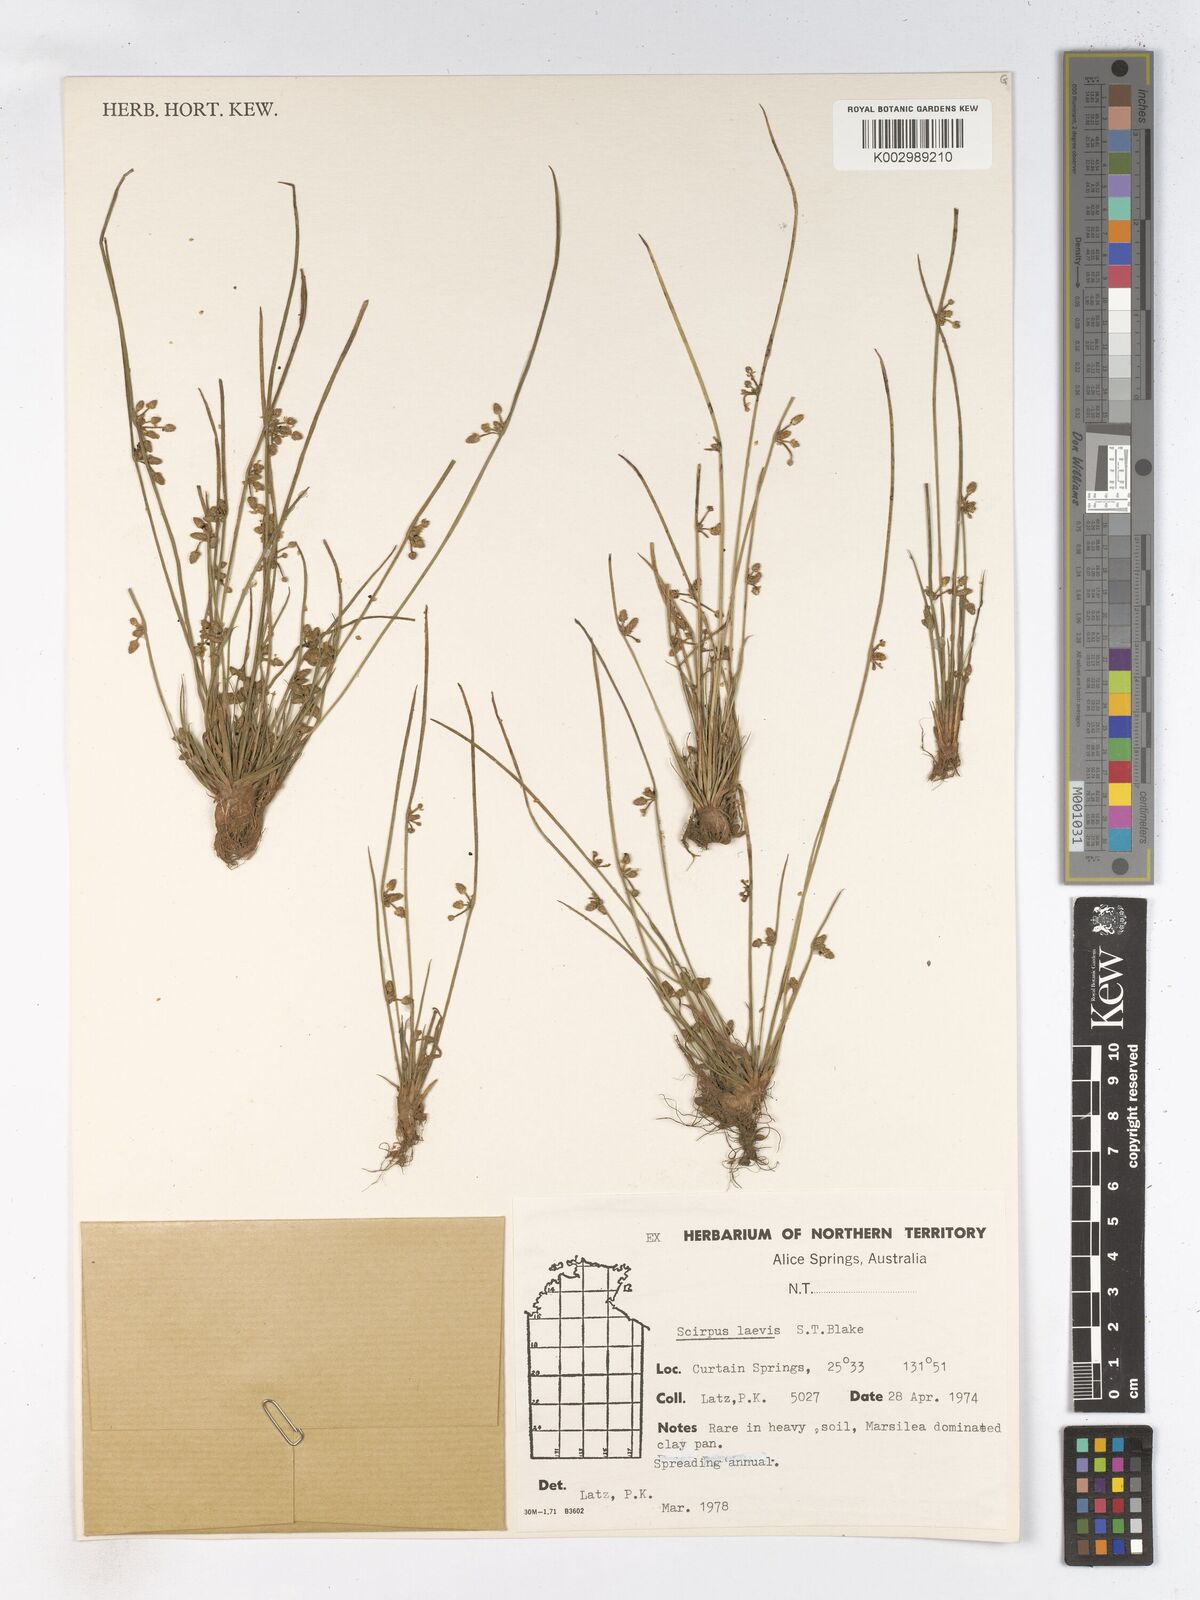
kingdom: Plantae
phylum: Tracheophyta
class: Liliopsida
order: Poales
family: Cyperaceae
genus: Schoenoplectiella
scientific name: Schoenoplectiella laevis
